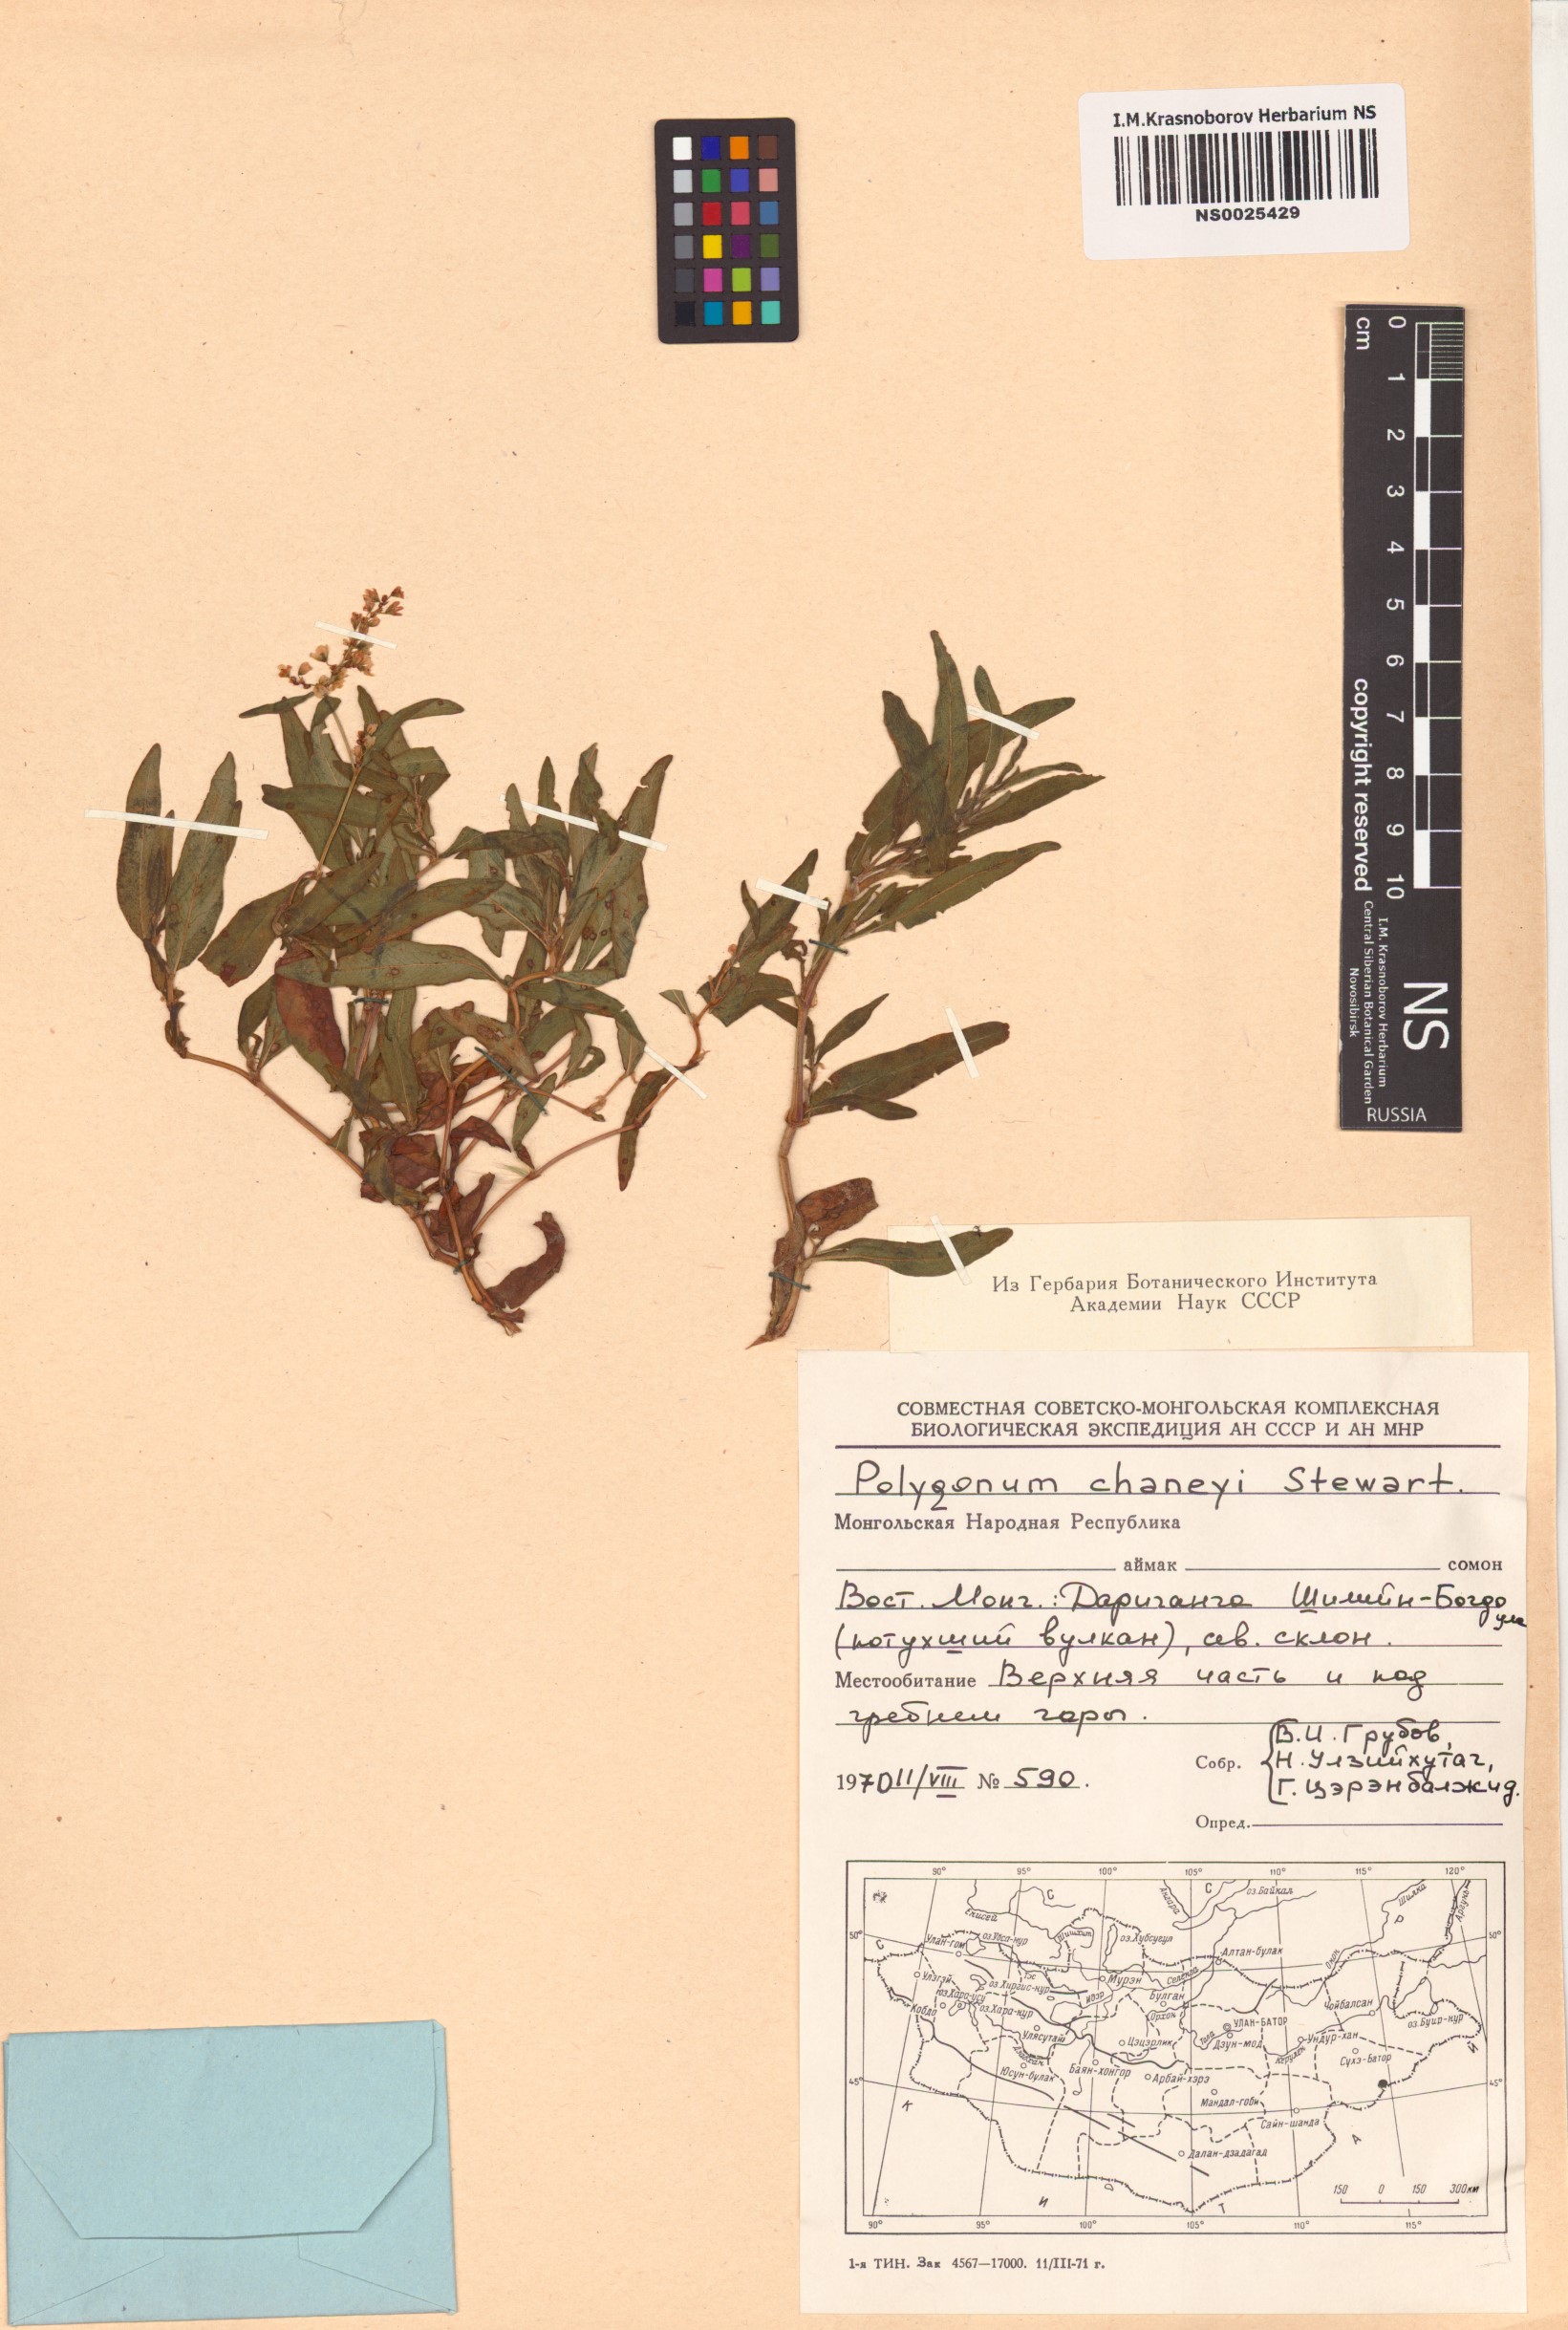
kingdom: Plantae
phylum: Tracheophyta
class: Magnoliopsida
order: Caryophyllales
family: Polygonaceae
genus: Koenigia
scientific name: Koenigia chaneyi
